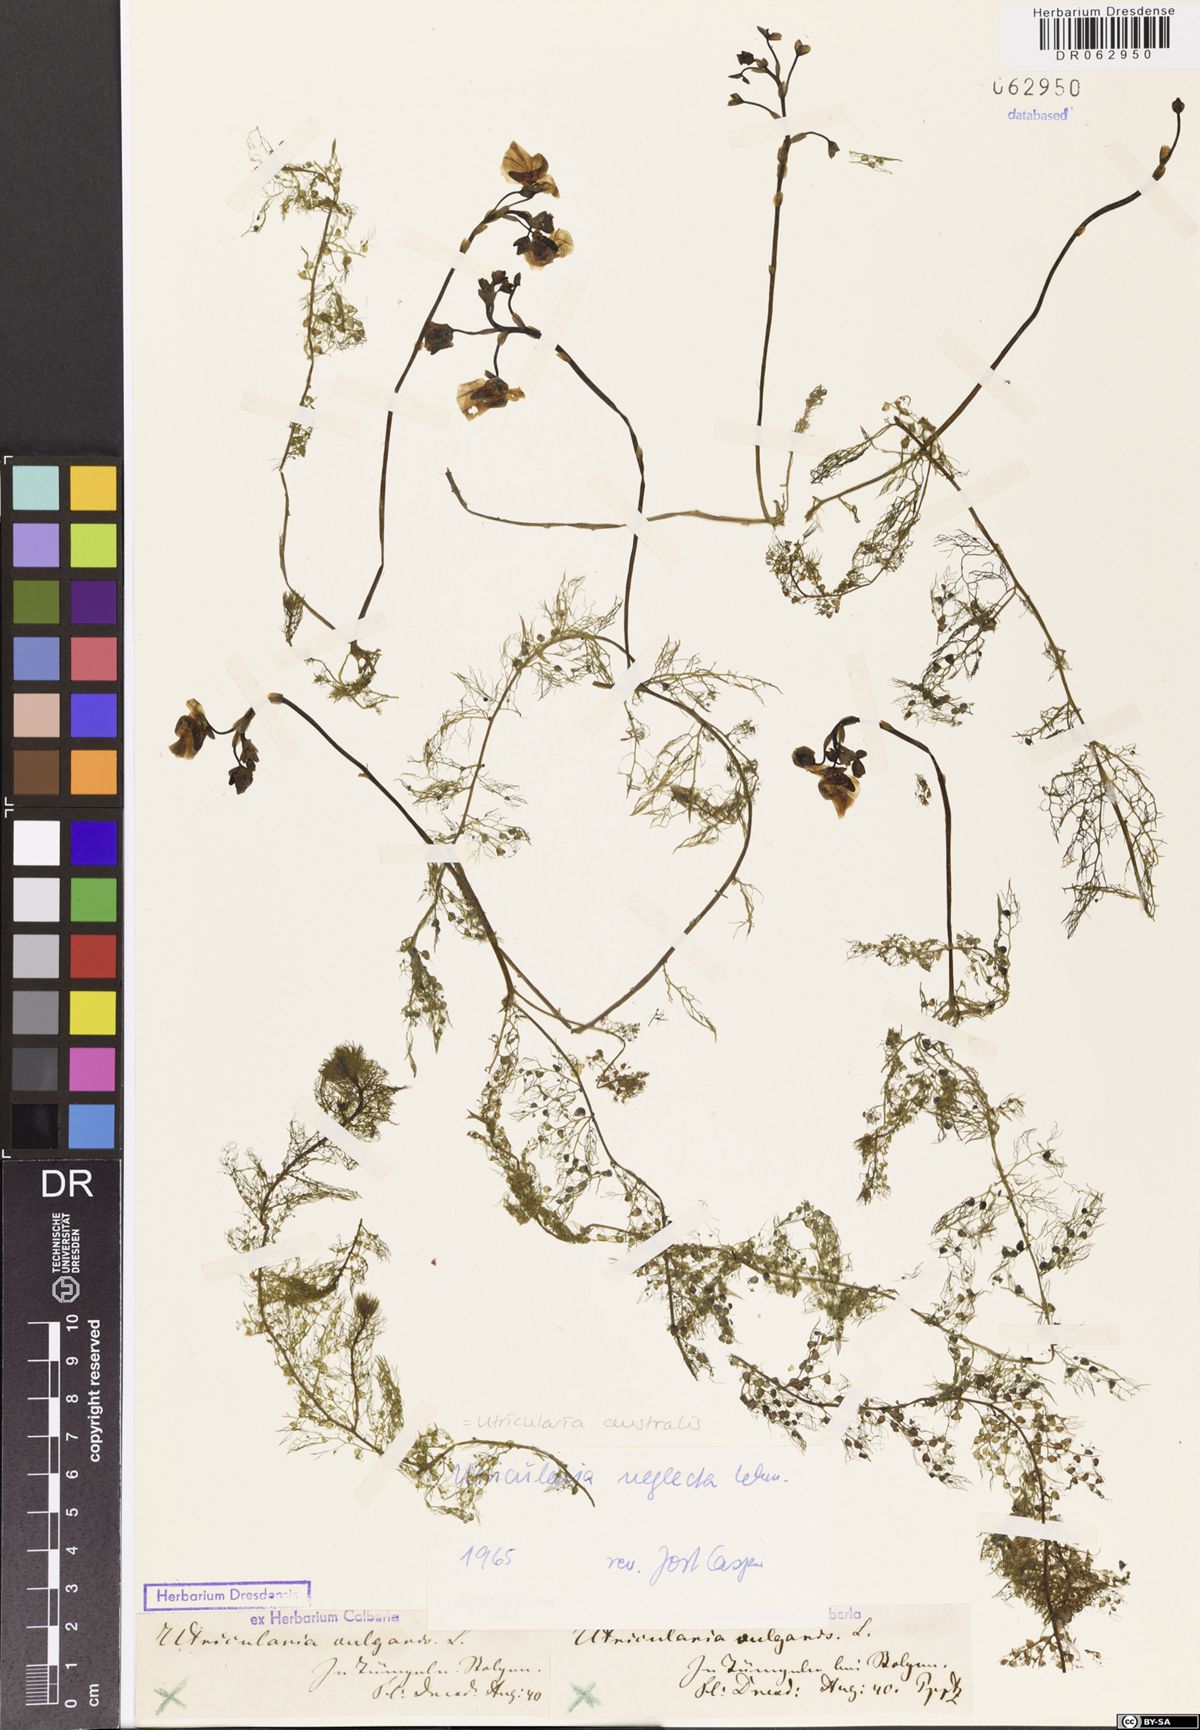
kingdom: Plantae
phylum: Tracheophyta
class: Magnoliopsida
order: Lamiales
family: Lentibulariaceae
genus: Utricularia
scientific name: Utricularia australis
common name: Bladderwort
